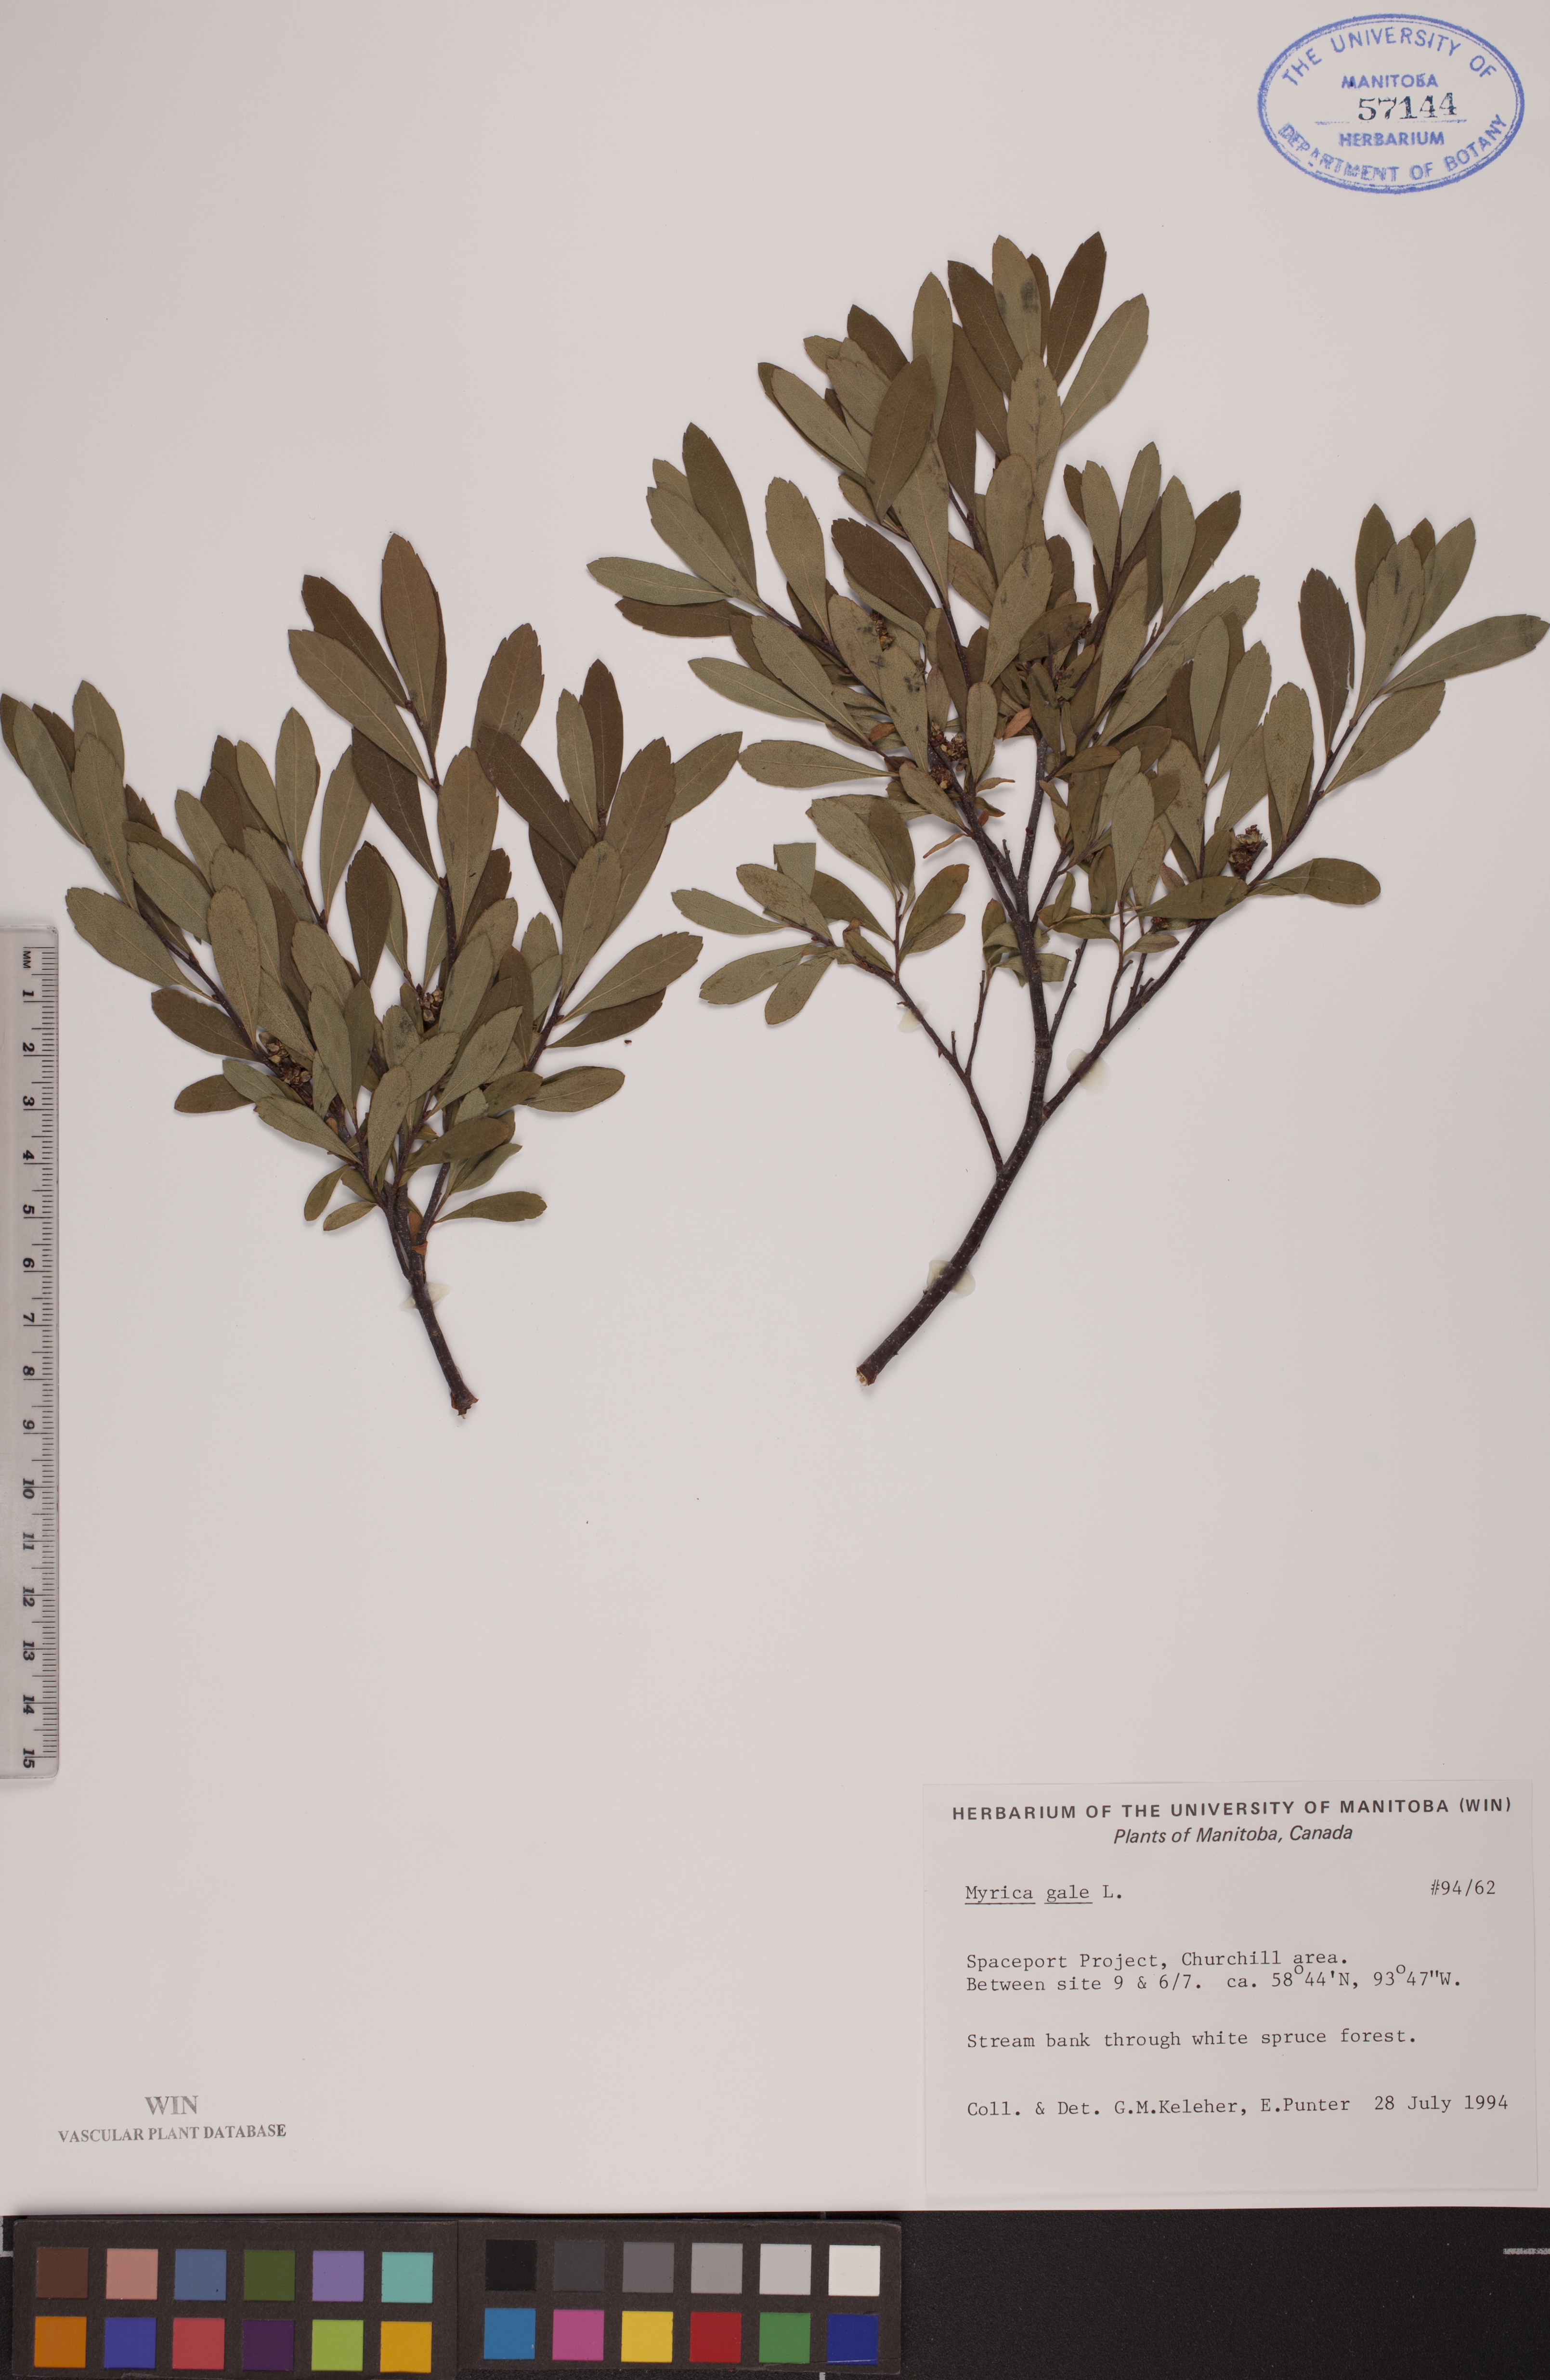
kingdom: Plantae
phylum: Tracheophyta
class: Magnoliopsida
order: Fagales
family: Myricaceae
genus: Myrica
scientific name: Myrica gale
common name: Sweet gale
